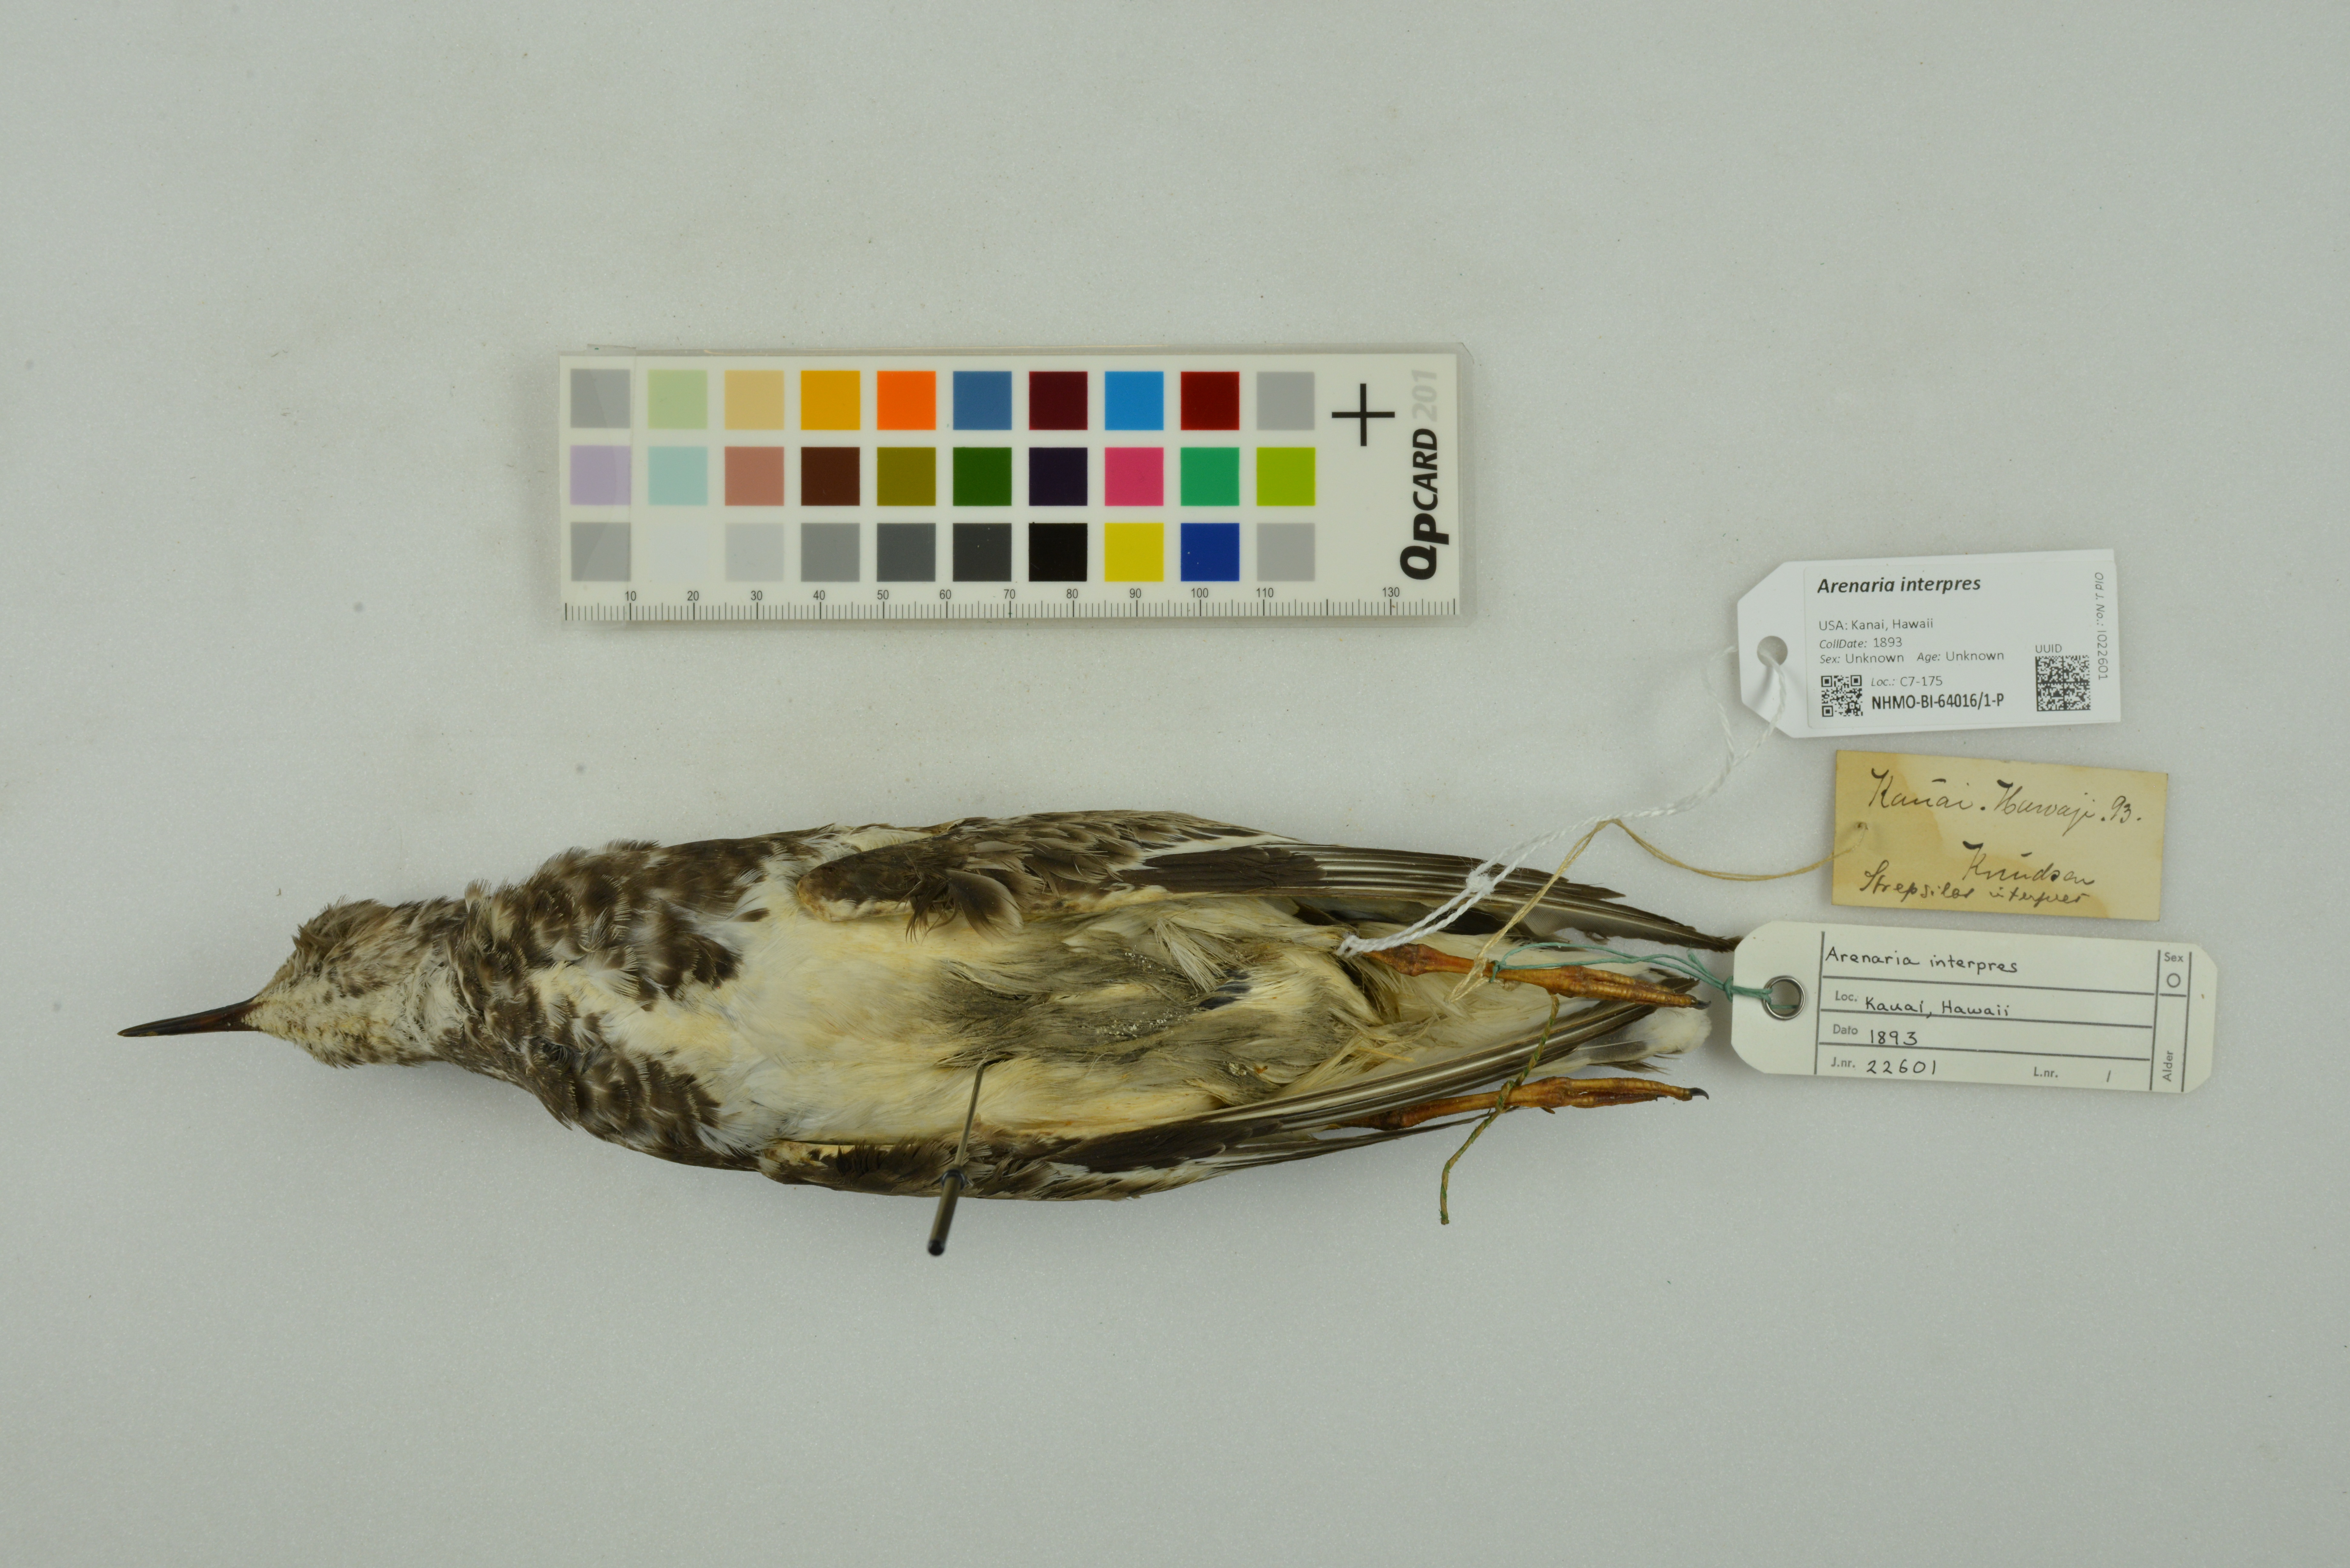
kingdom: Animalia
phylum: Chordata
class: Aves
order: Charadriiformes
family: Scolopacidae
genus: Arenaria
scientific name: Arenaria interpres
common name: Ruddy turnstone
